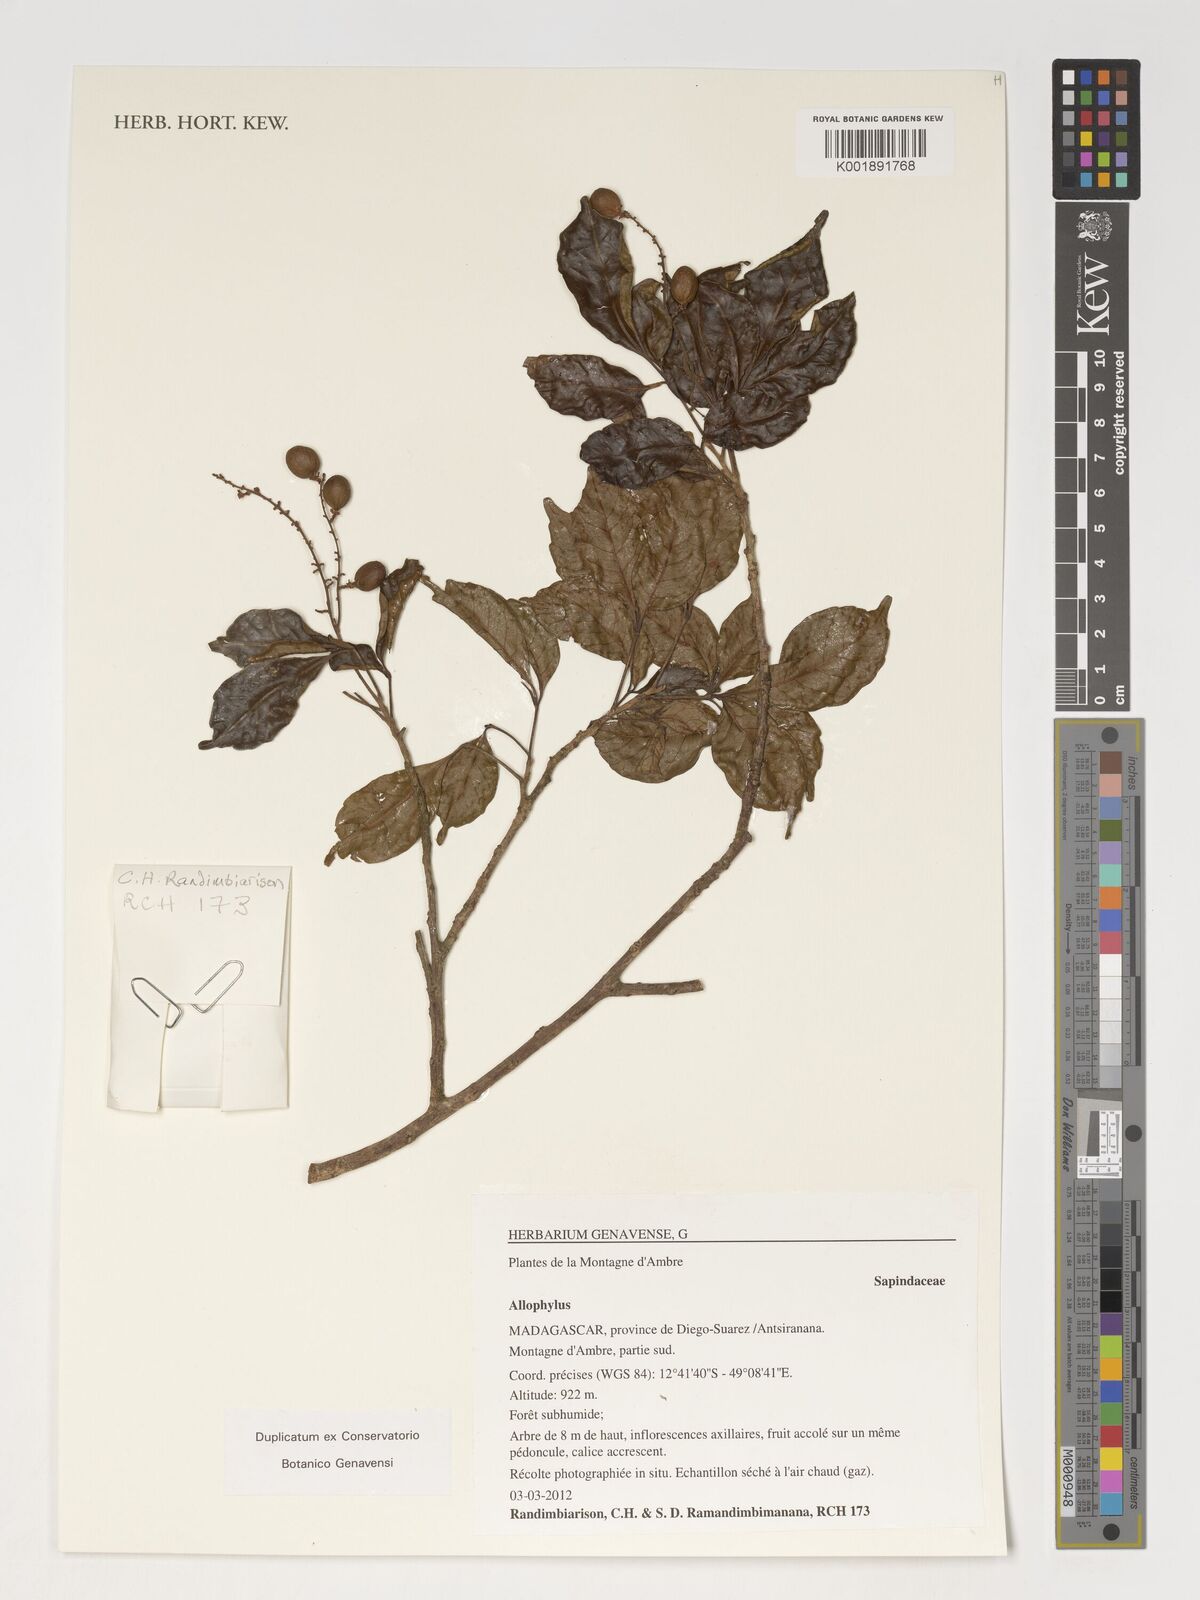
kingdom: Plantae
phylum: Tracheophyta
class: Magnoliopsida
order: Sapindales
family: Sapindaceae
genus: Allophylus
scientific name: Allophylus
